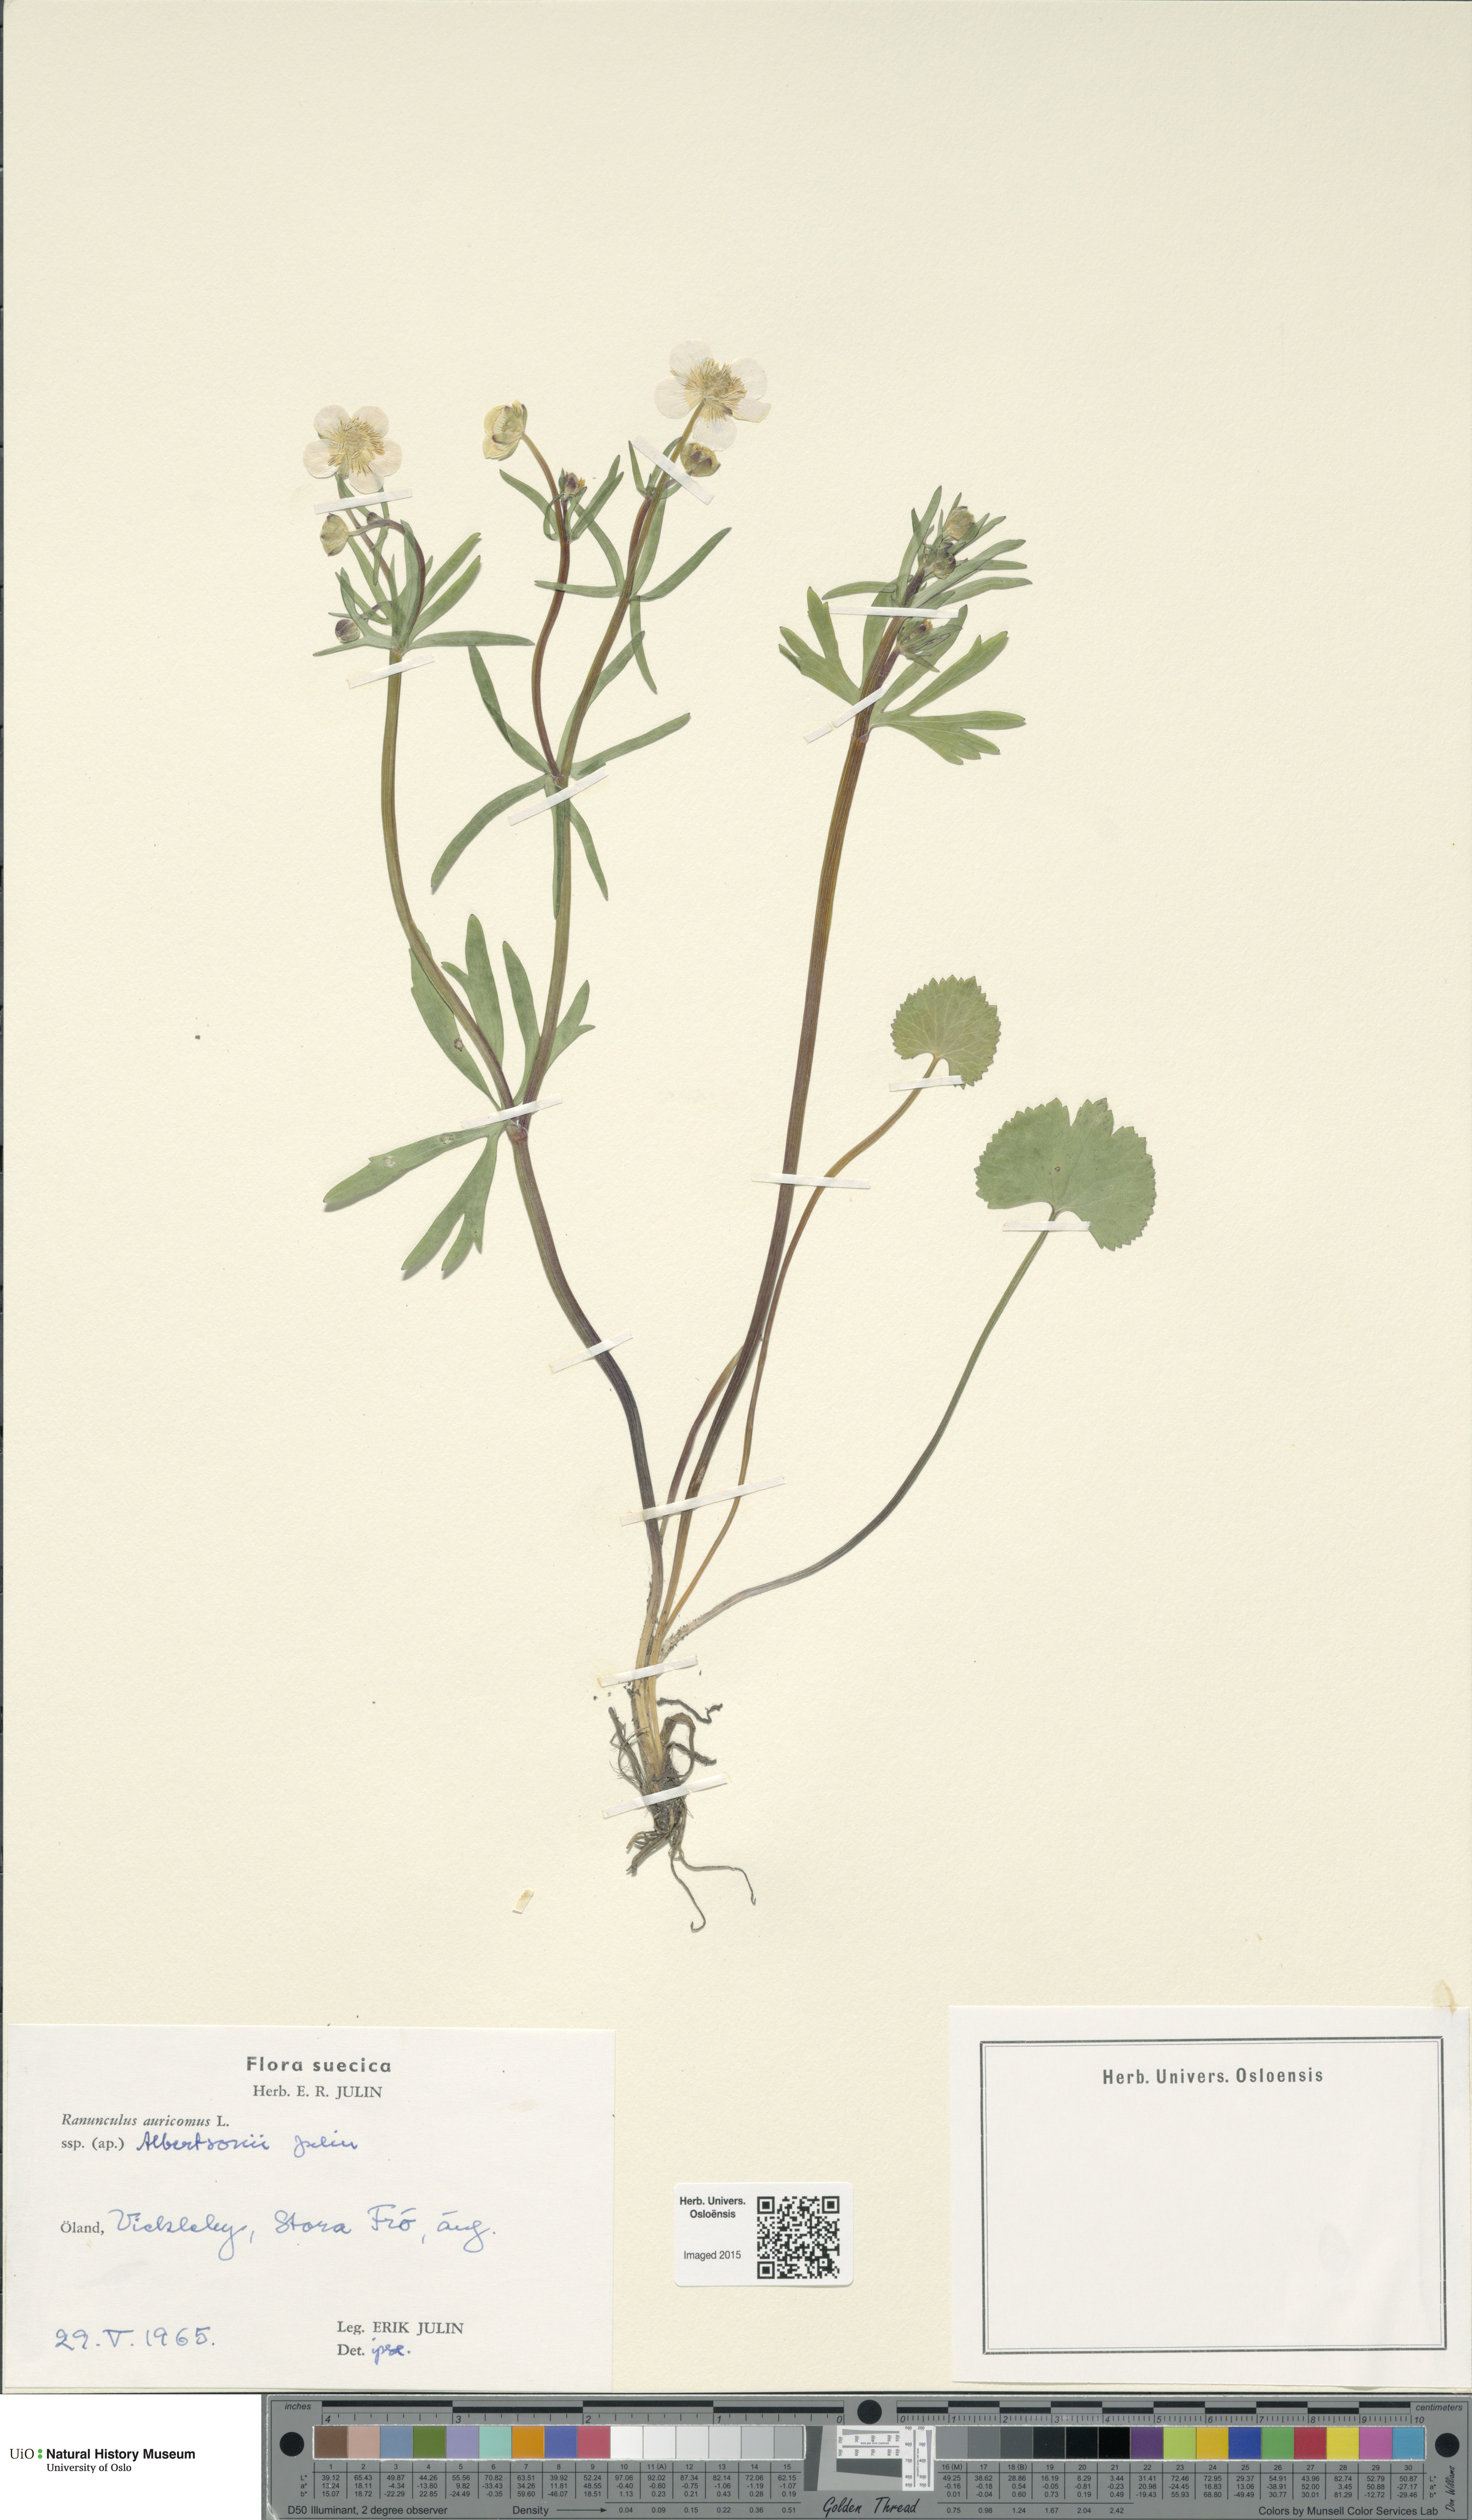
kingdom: Plantae
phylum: Tracheophyta
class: Magnoliopsida
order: Ranunculales
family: Ranunculaceae
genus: Ranunculus
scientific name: Ranunculus albertsonii
